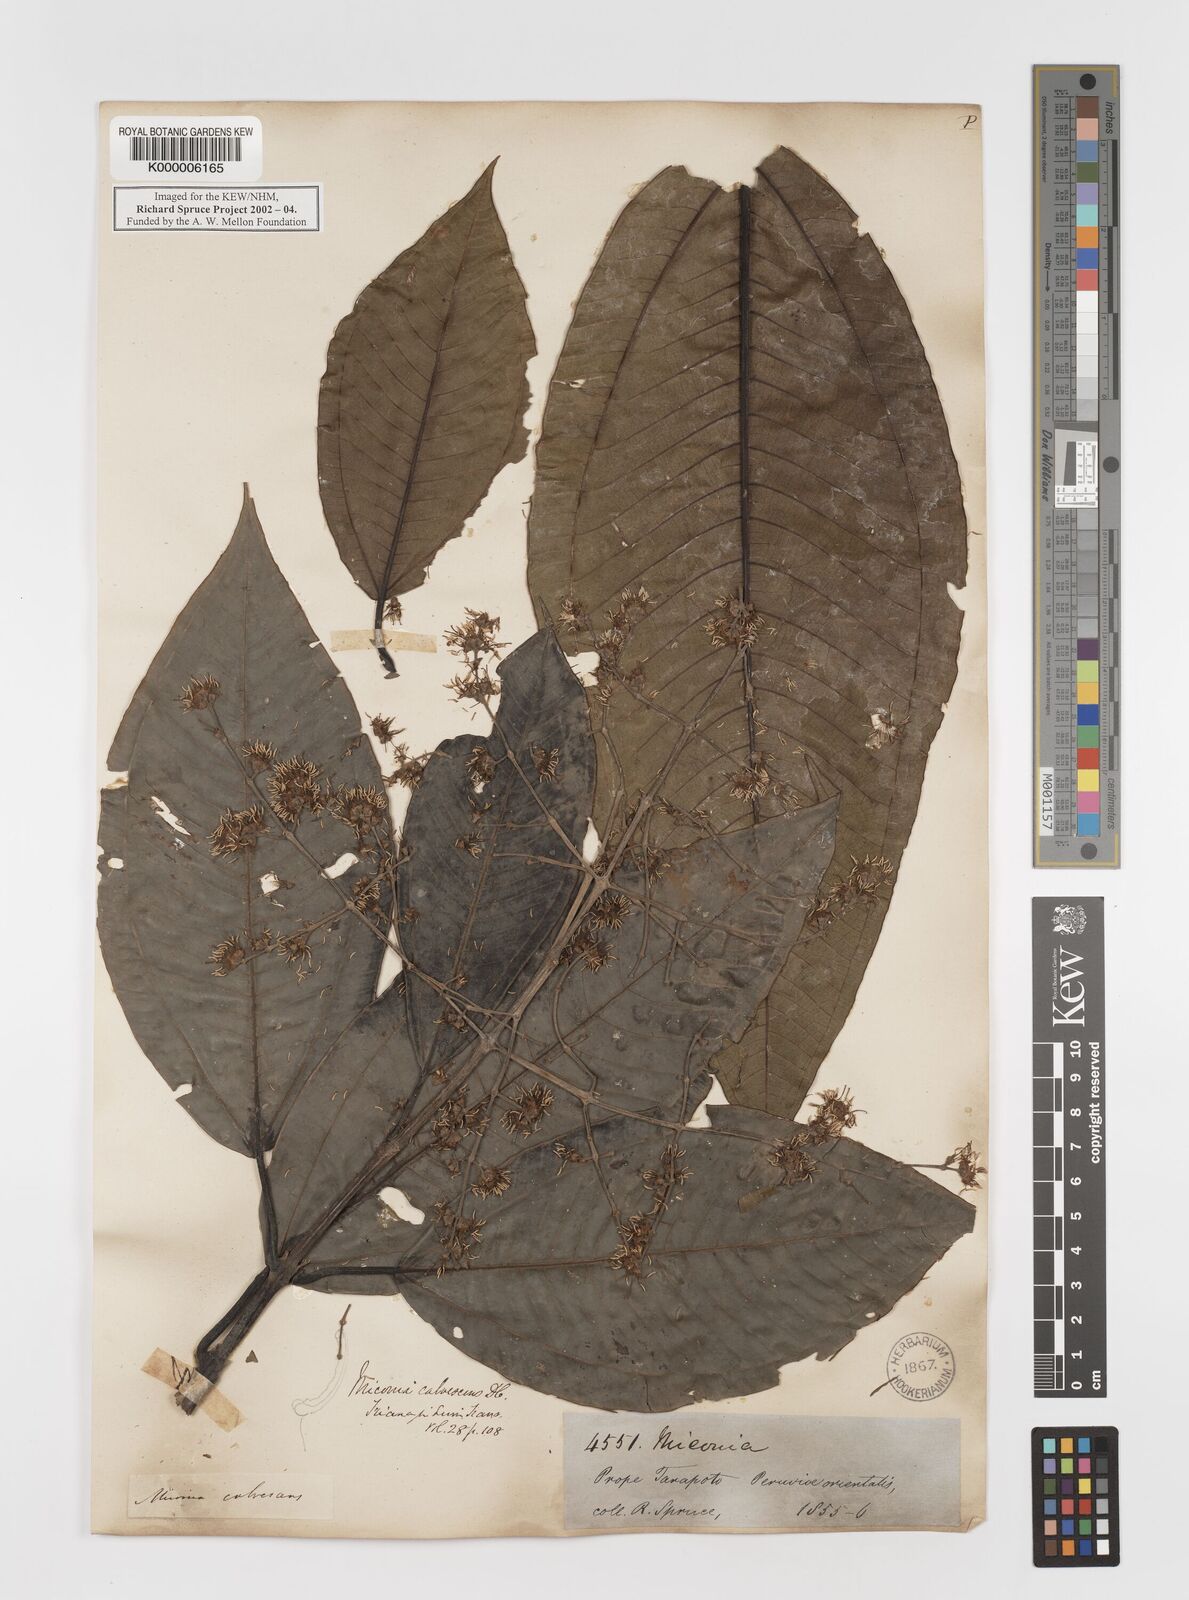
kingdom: Plantae
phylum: Tracheophyta
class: Magnoliopsida
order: Myrtales
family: Melastomataceae
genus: Miconia
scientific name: Miconia calvescens
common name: Purple plague
